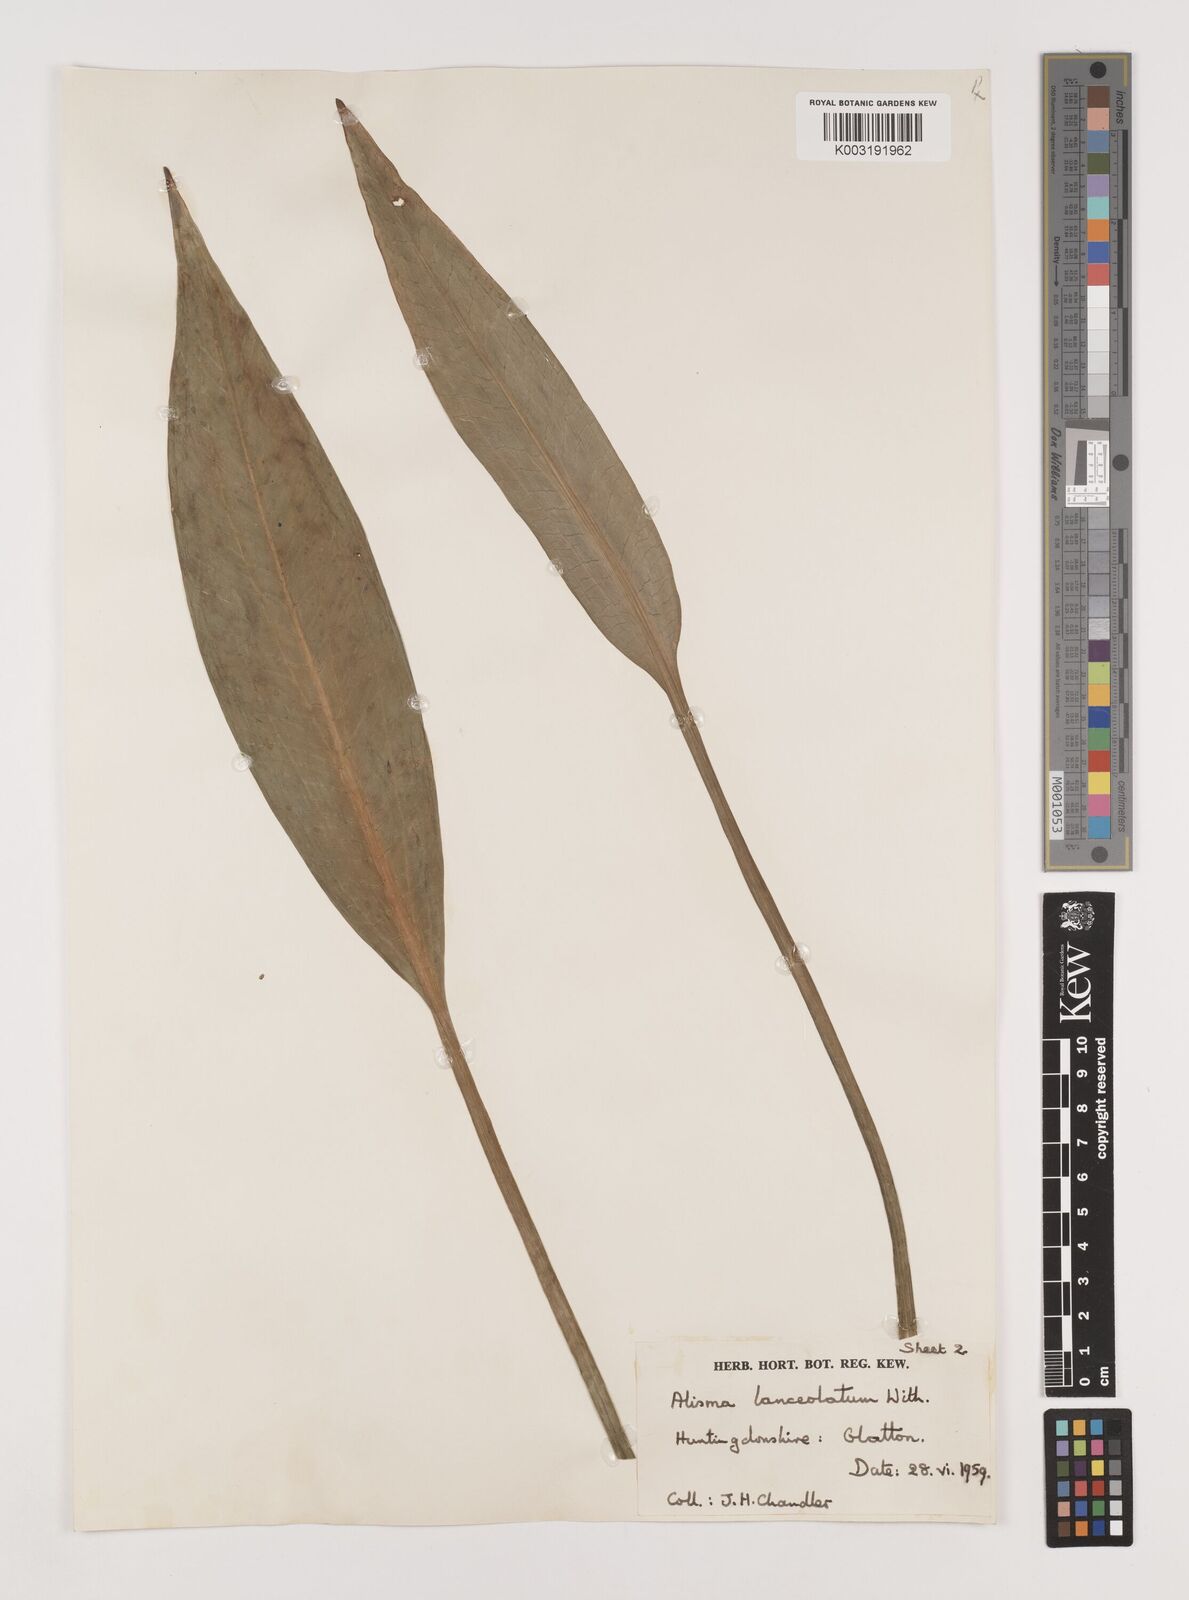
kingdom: Plantae
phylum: Tracheophyta
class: Liliopsida
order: Alismatales
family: Alismataceae
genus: Alisma
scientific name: Alisma lanceolatum
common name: Narrow-leaved water-plantain
